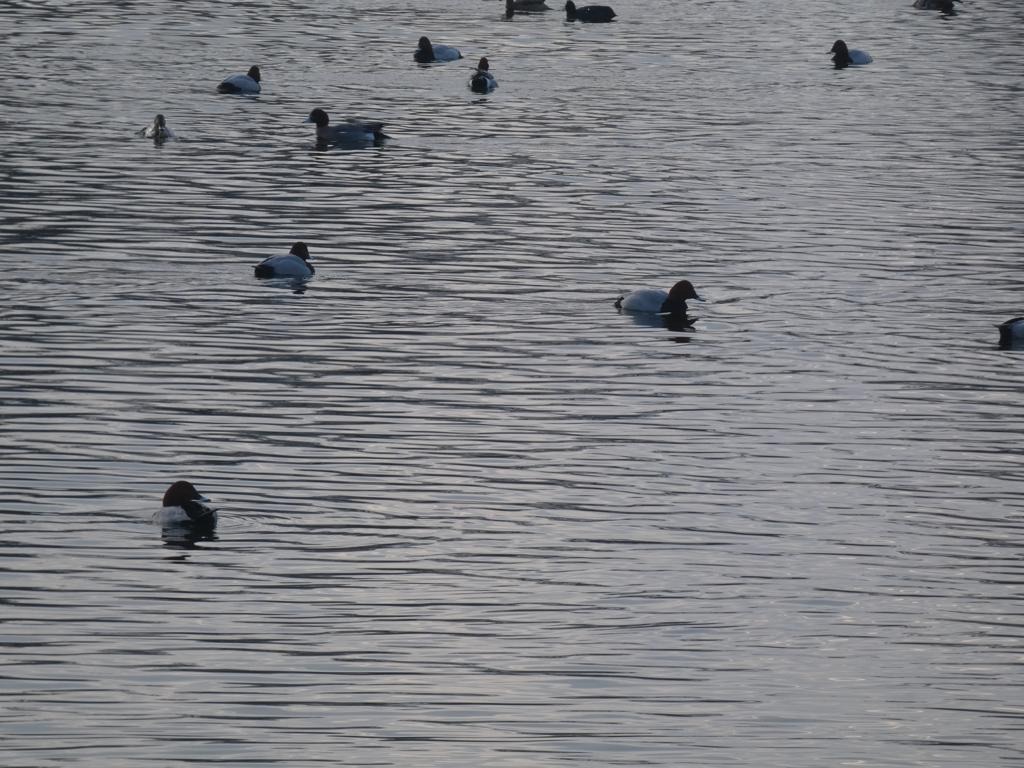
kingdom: Animalia
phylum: Chordata
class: Aves
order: Anseriformes
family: Anatidae
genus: Aythya
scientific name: Aythya ferina
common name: Taffeland
